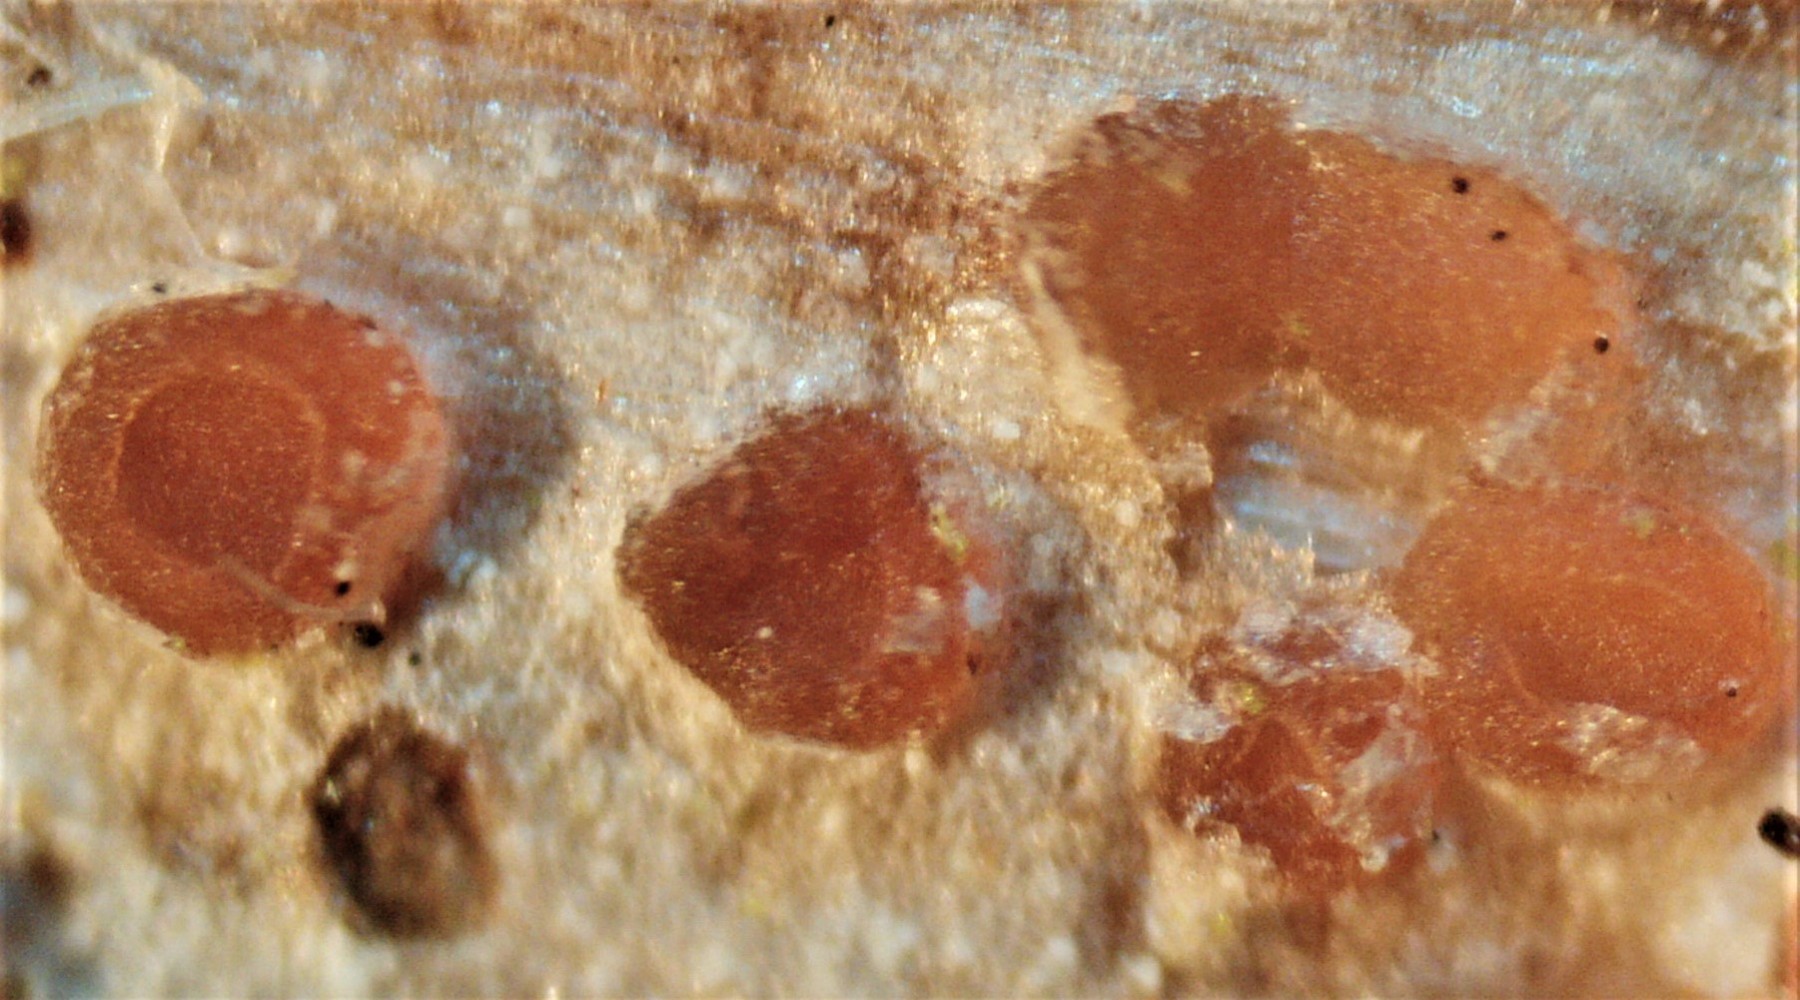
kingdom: Fungi
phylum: Ascomycota
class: Leotiomycetes
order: Helotiales
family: Calloriaceae
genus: Calloria
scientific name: Calloria urticae
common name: nælde-orangeskive
